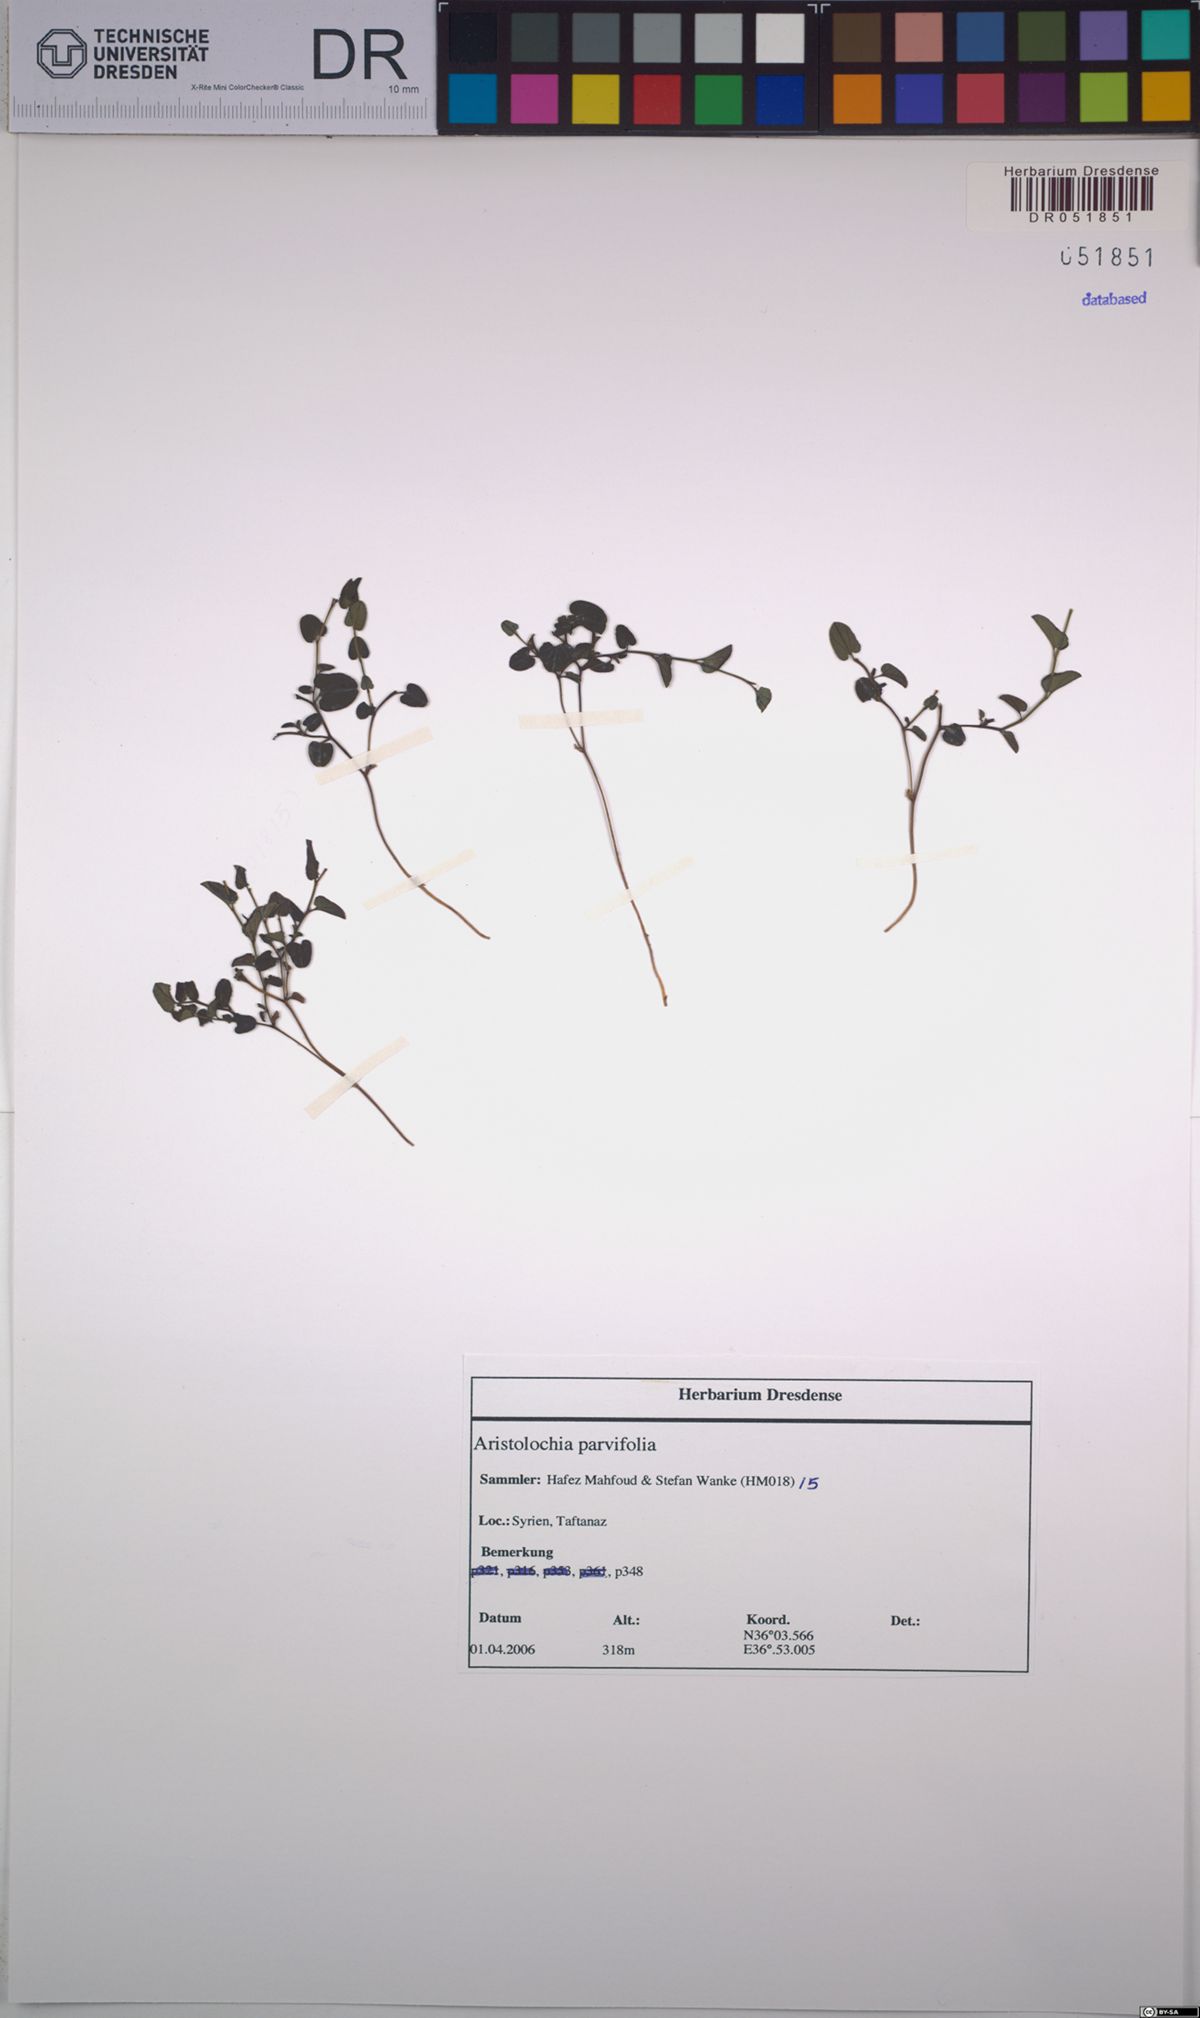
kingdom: Plantae
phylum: Tracheophyta
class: Magnoliopsida
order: Piperales
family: Aristolochiaceae
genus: Aristolochia
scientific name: Aristolochia parvifolia
